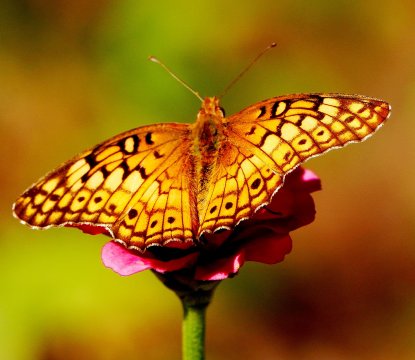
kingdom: Animalia
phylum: Arthropoda
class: Insecta
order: Lepidoptera
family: Nymphalidae
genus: Euptoieta
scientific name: Euptoieta claudia
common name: Variegated Fritillary
